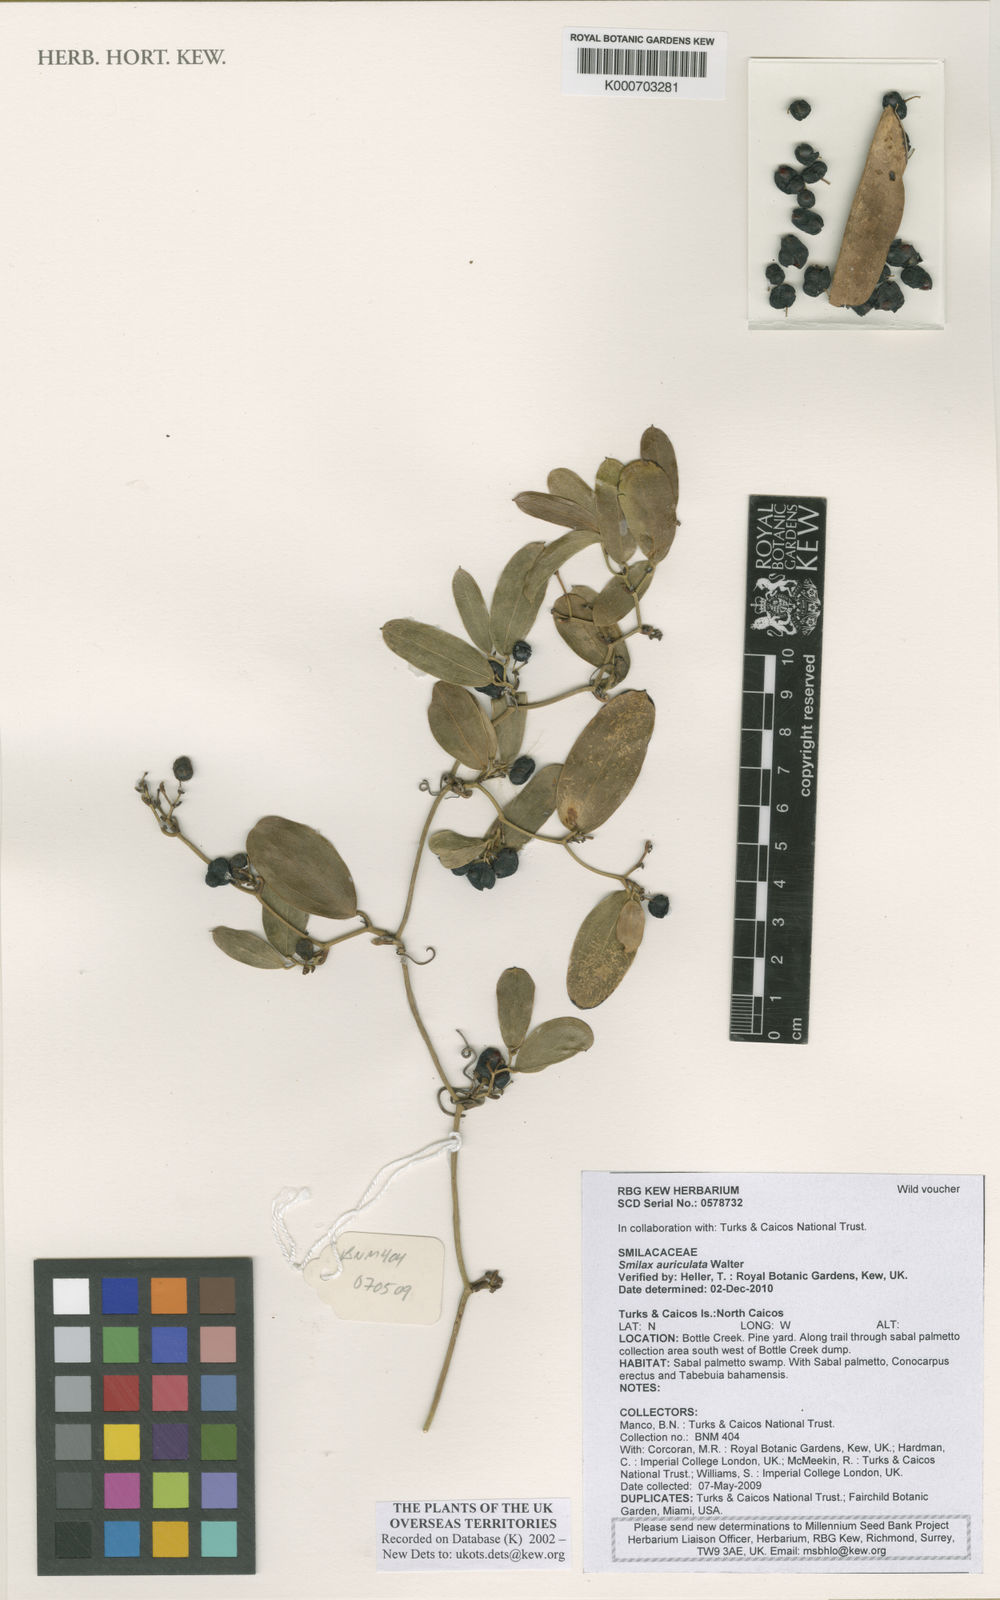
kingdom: Plantae
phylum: Tracheophyta
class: Liliopsida
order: Liliales
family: Smilacaceae
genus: Smilax
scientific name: Smilax auriculata
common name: Wild bamboo
